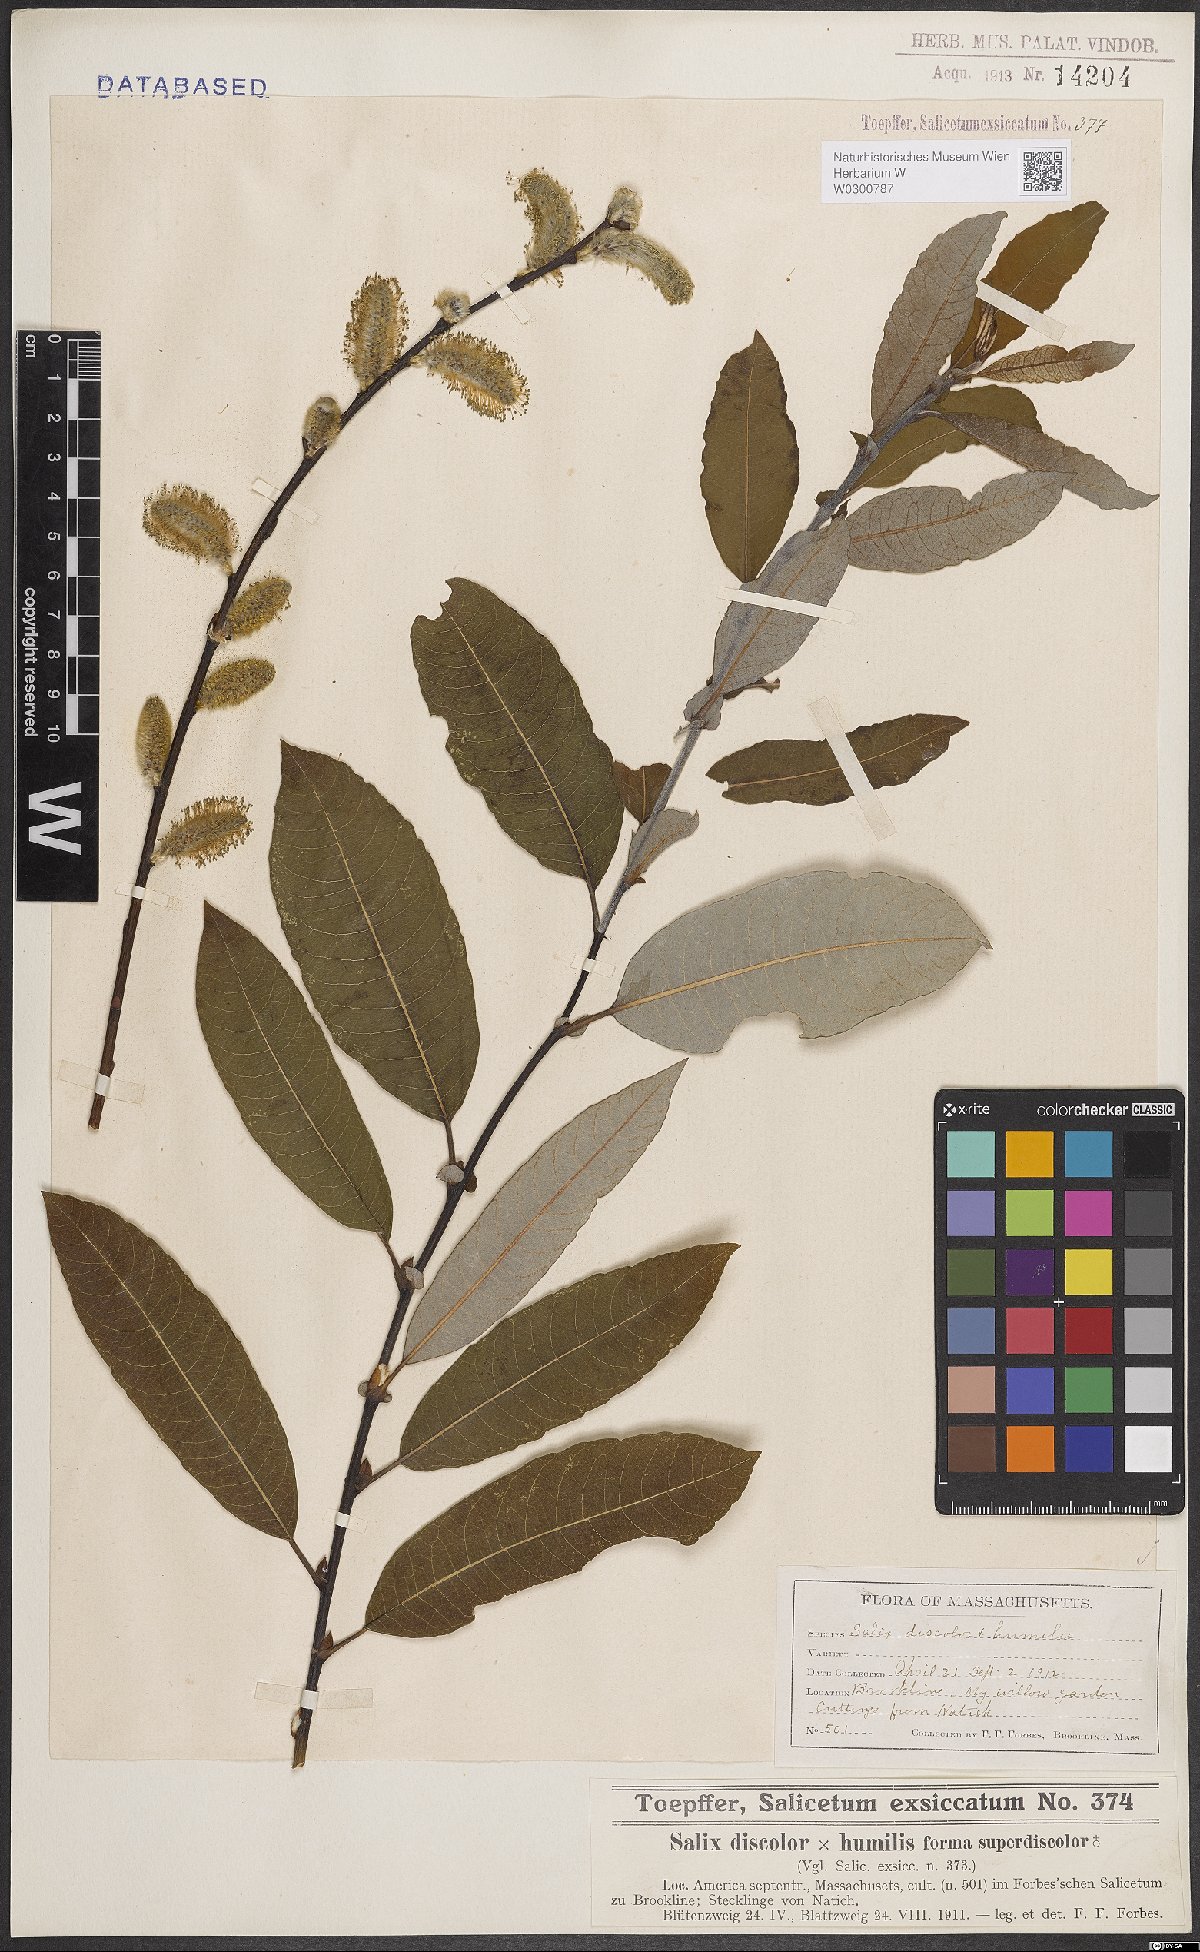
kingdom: Plantae
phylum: Tracheophyta
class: Magnoliopsida
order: Malpighiales
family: Salicaceae
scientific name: Salicaceae
